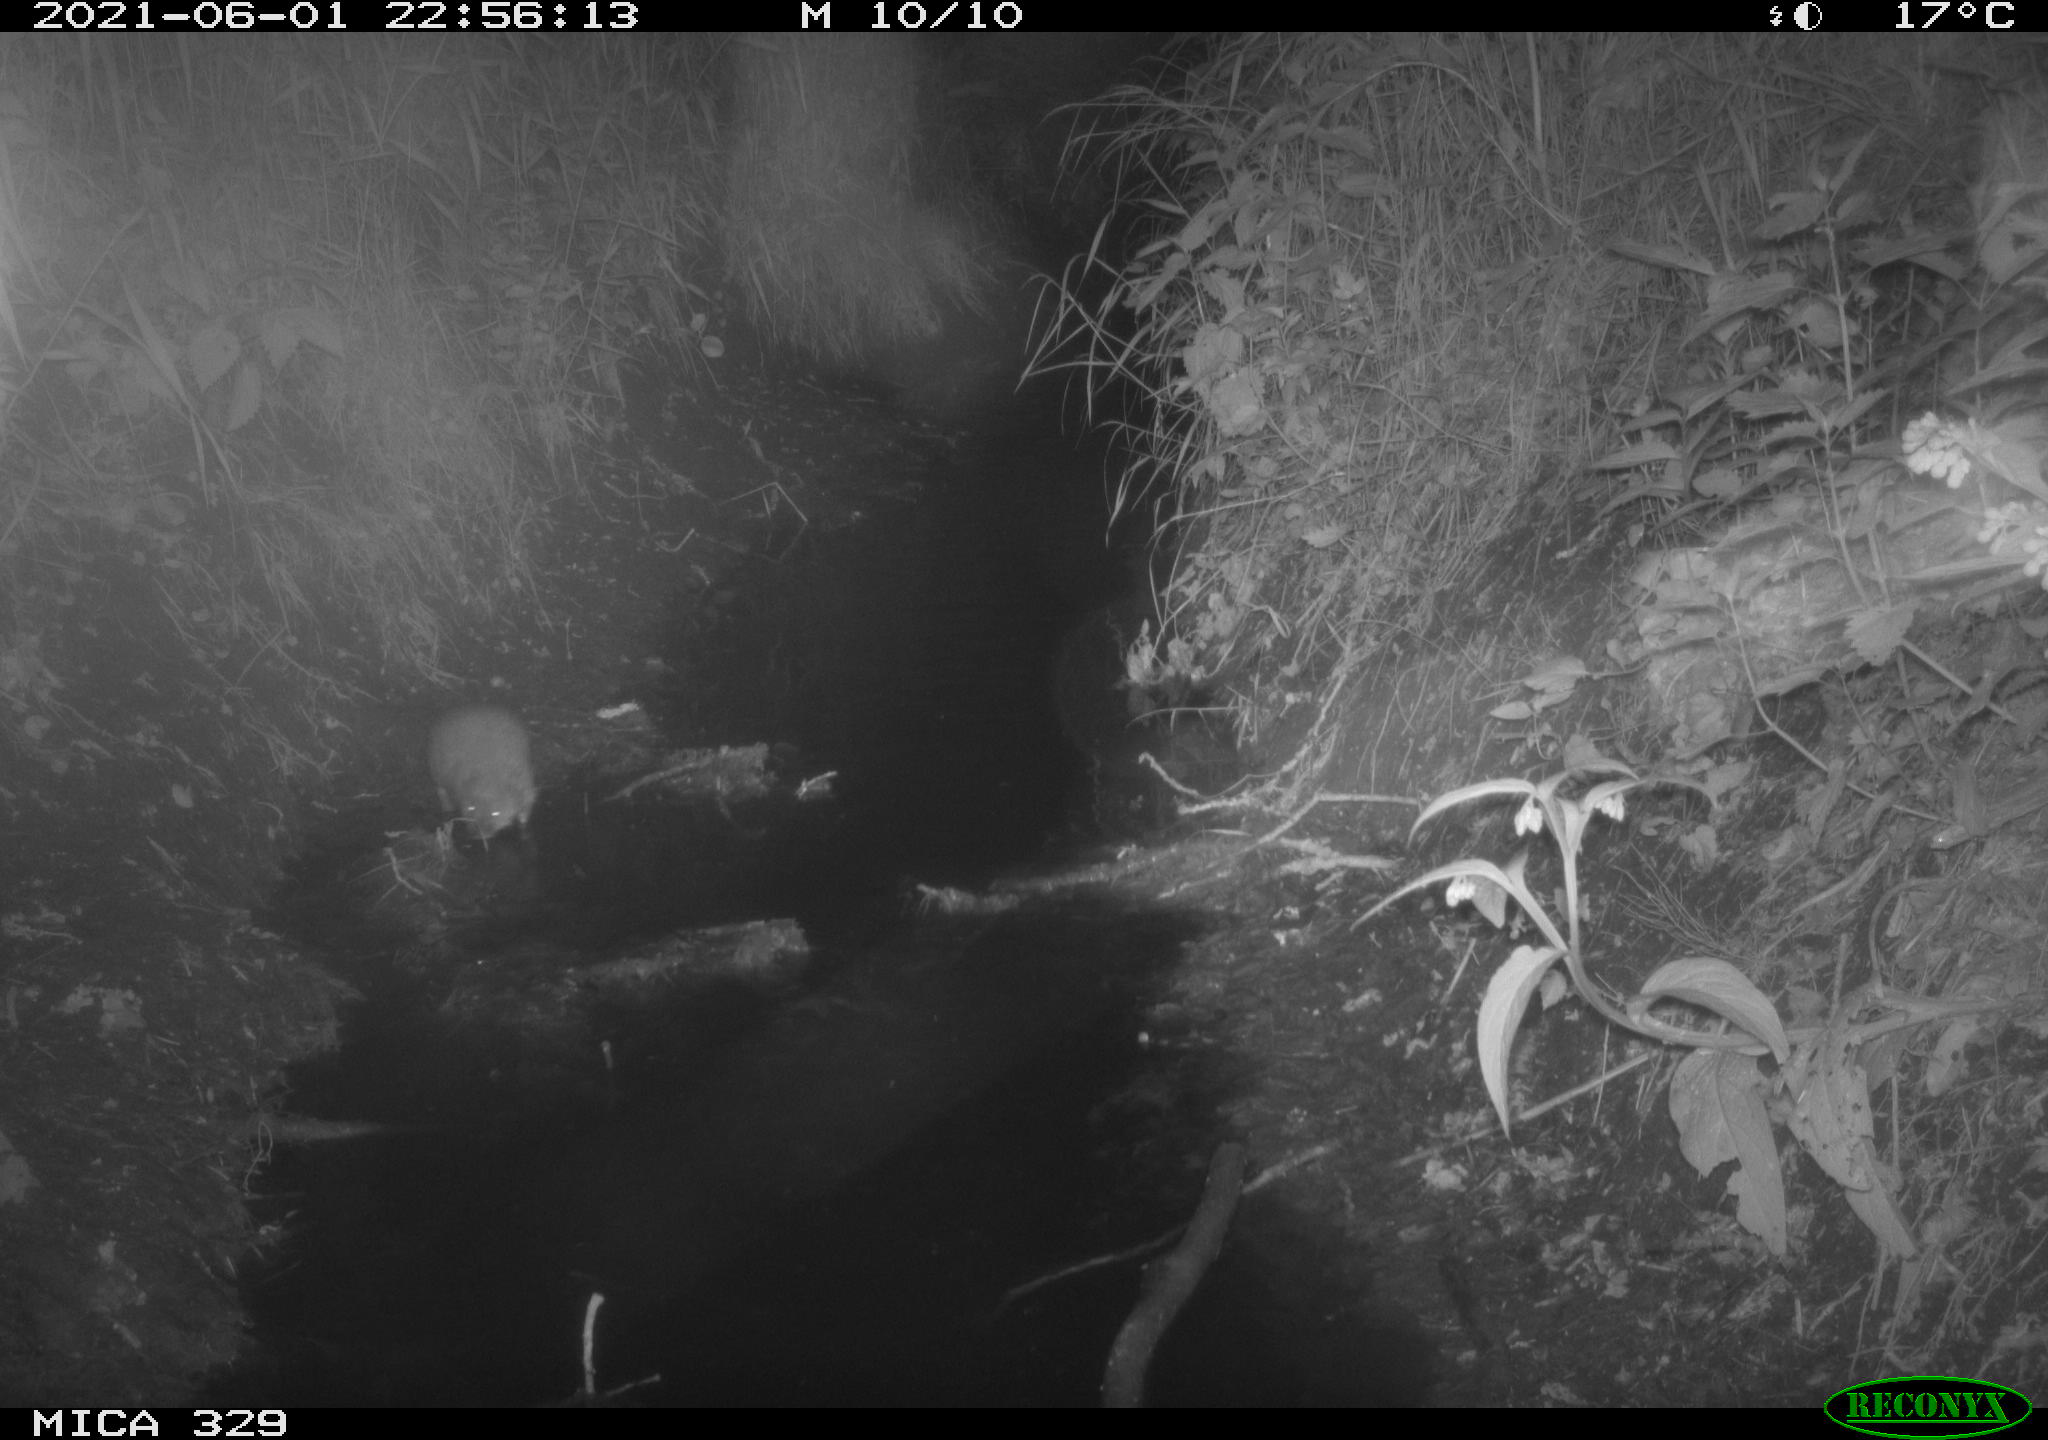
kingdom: Animalia
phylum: Chordata
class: Mammalia
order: Rodentia
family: Cricetidae
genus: Ondatra
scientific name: Ondatra zibethicus
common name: Muskrat
